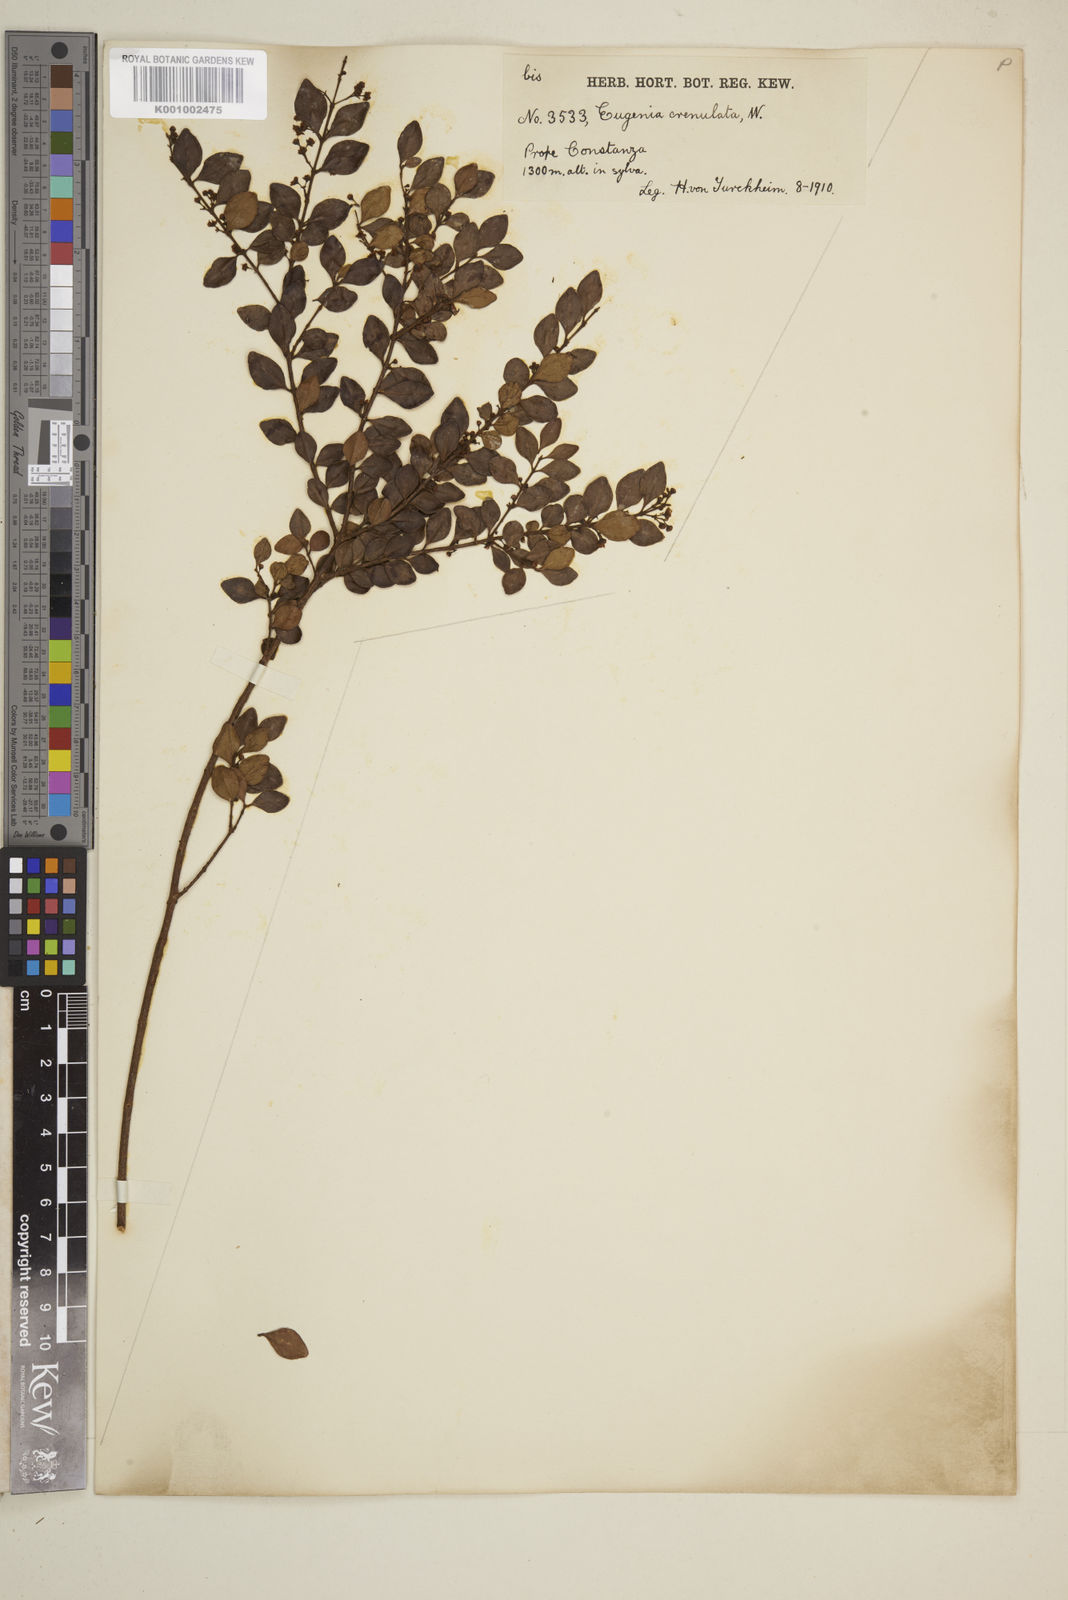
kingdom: Plantae
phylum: Tracheophyta
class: Magnoliopsida
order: Myrtales
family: Myrtaceae
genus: Eugenia
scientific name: Eugenia crenulata
